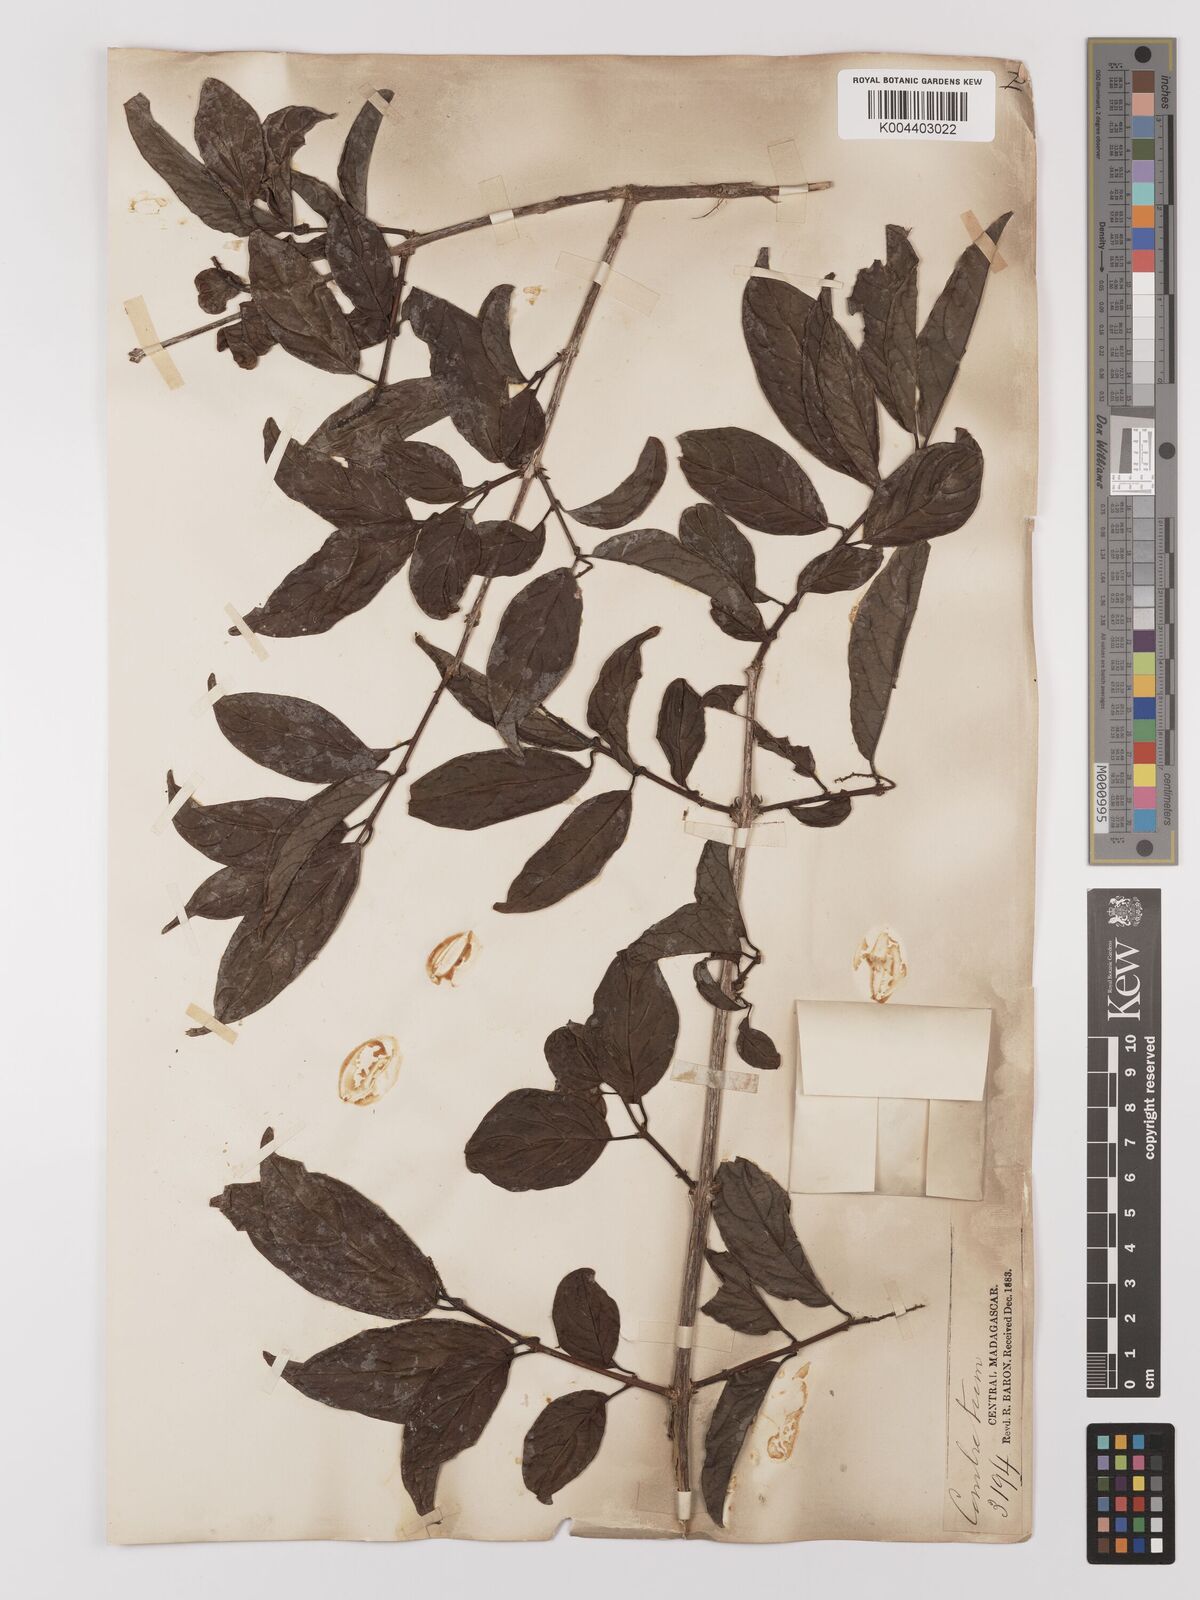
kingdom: Plantae
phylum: Tracheophyta
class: Magnoliopsida
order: Myrtales
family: Combretaceae
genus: Combretum
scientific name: Combretum
